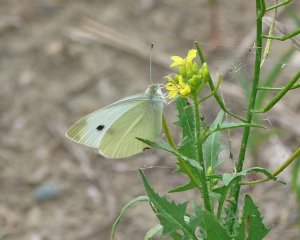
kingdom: Animalia
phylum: Arthropoda
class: Insecta
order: Lepidoptera
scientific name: Lepidoptera
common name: Butterflies
